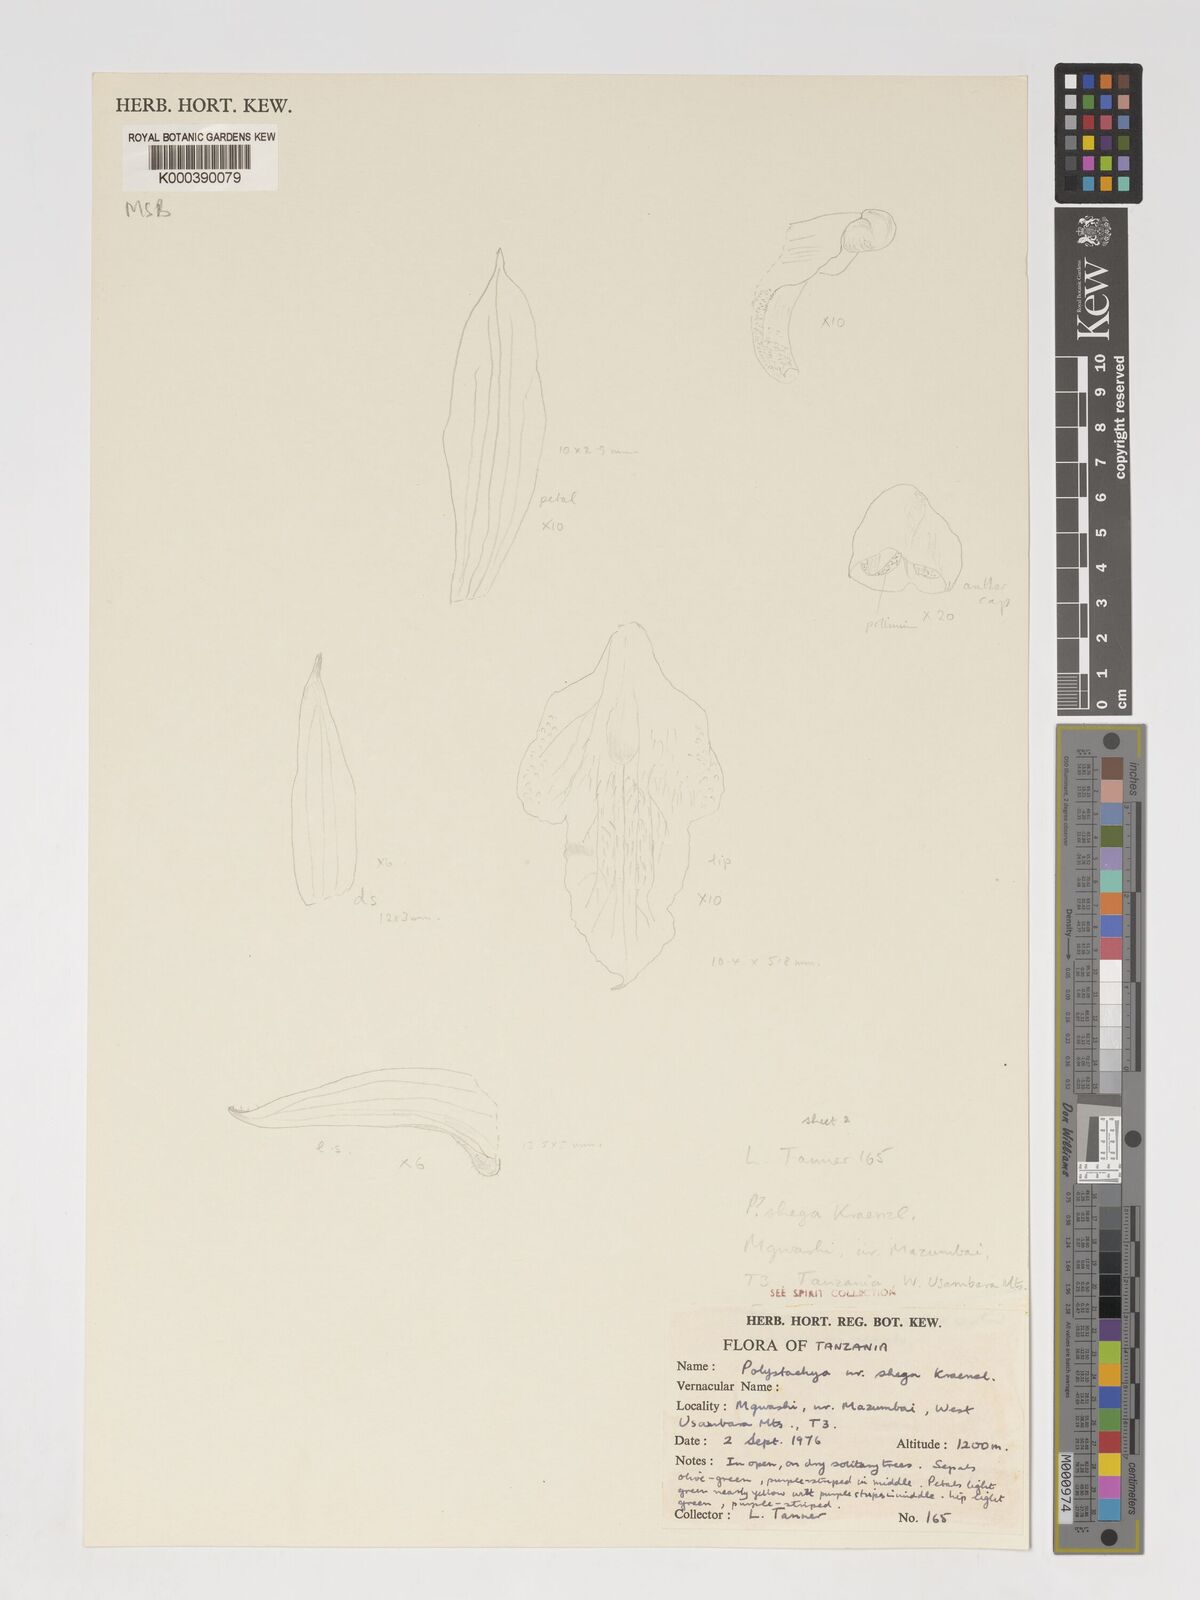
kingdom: Plantae
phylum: Tracheophyta
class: Liliopsida
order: Asparagales
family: Orchidaceae
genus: Polystachya
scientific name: Polystachya serpentina
